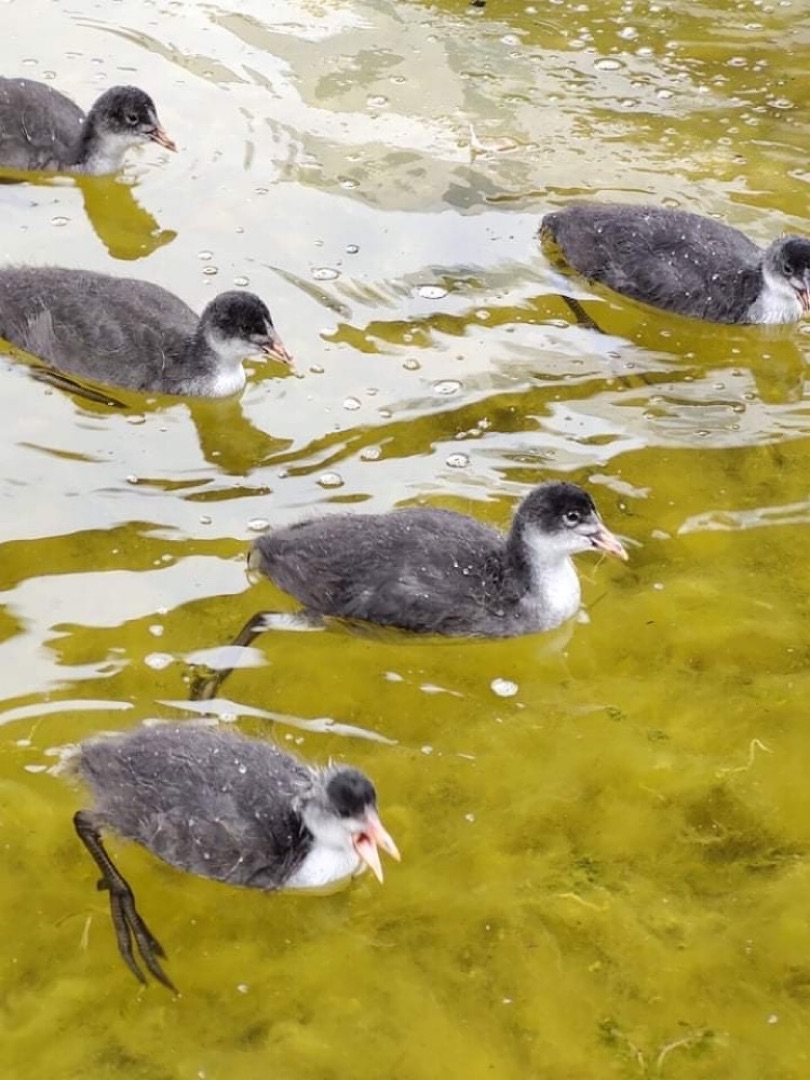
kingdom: Animalia
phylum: Chordata
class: Aves
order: Gruiformes
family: Rallidae
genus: Fulica
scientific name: Fulica atra
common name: Blishøne
